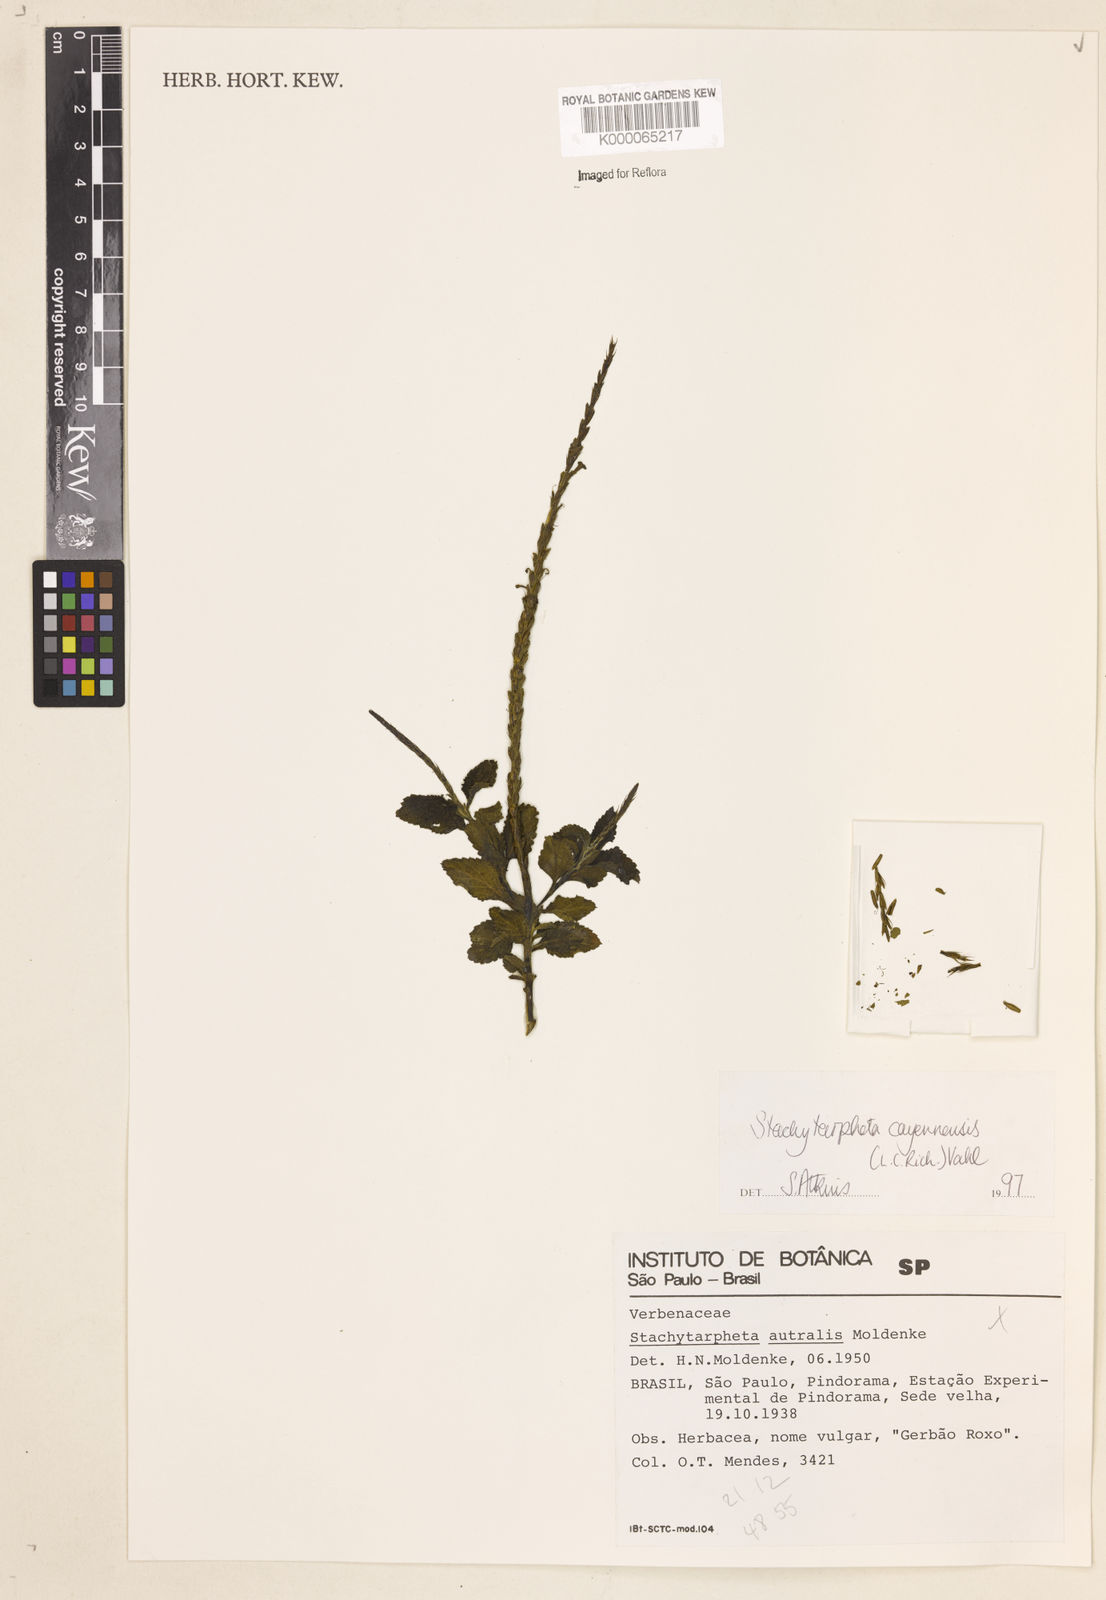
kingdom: Plantae
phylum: Tracheophyta
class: Magnoliopsida
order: Lamiales
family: Verbenaceae
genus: Stachytarpheta
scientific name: Stachytarpheta cayennensis
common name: Cayenne porterweed
